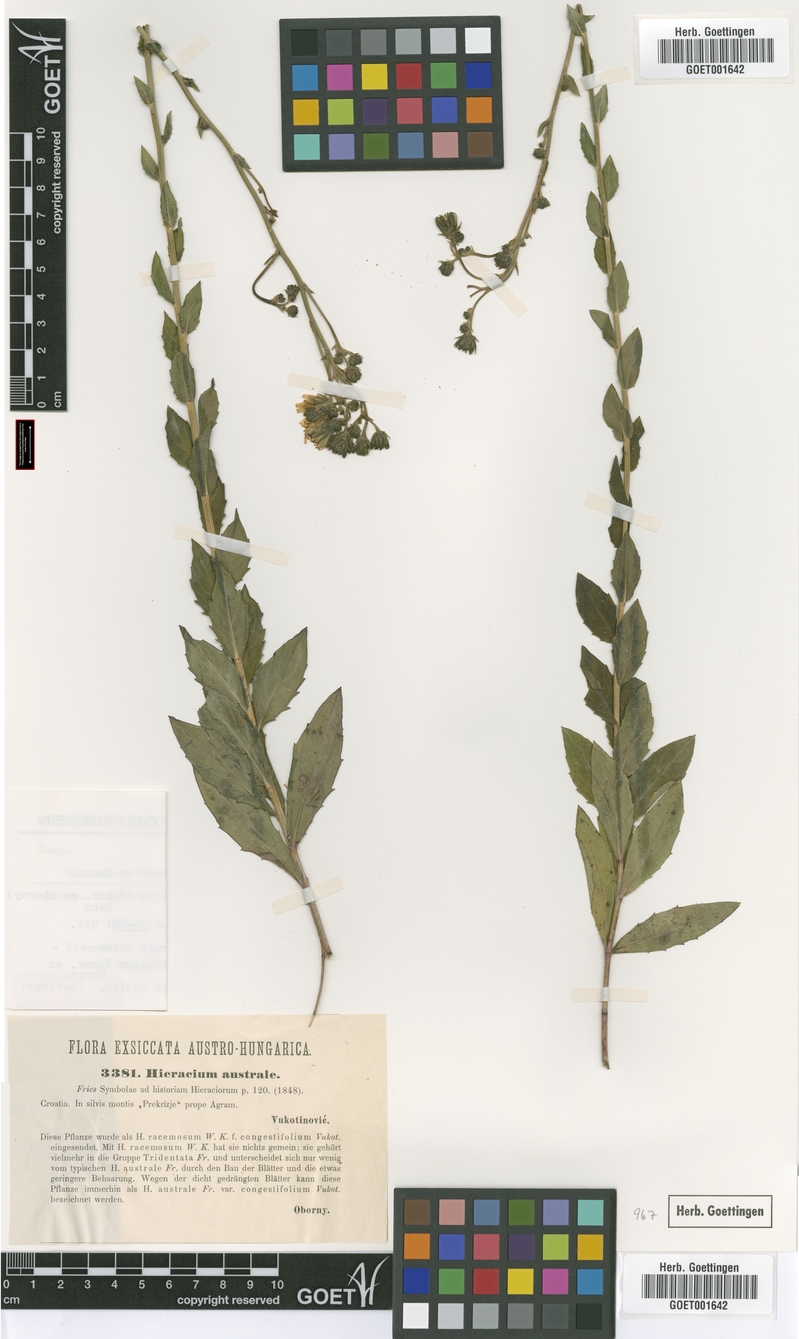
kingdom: Plantae
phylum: Tracheophyta
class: Magnoliopsida
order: Asterales
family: Asteraceae
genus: Hieracium
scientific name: Hieracium brevifolium
